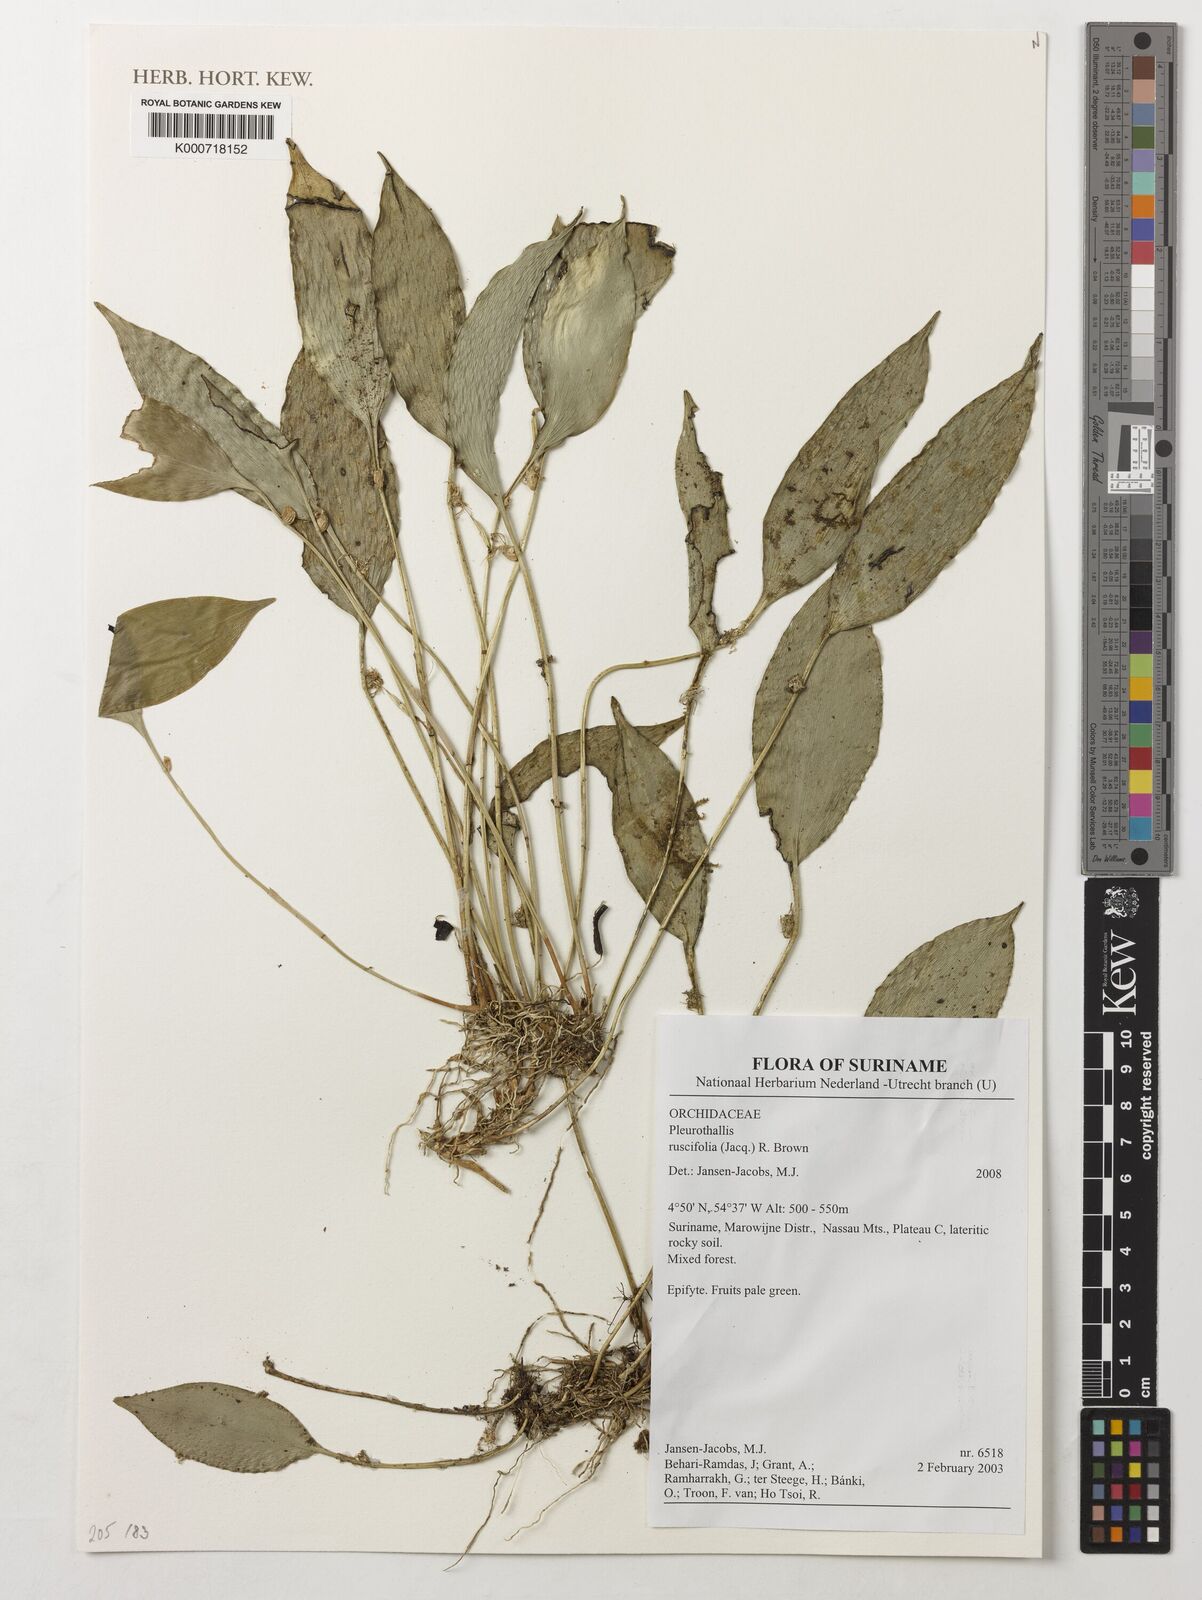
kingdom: Plantae
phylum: Tracheophyta
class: Liliopsida
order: Asparagales
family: Orchidaceae
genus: Pleurothallis
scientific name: Pleurothallis ruscifolia
